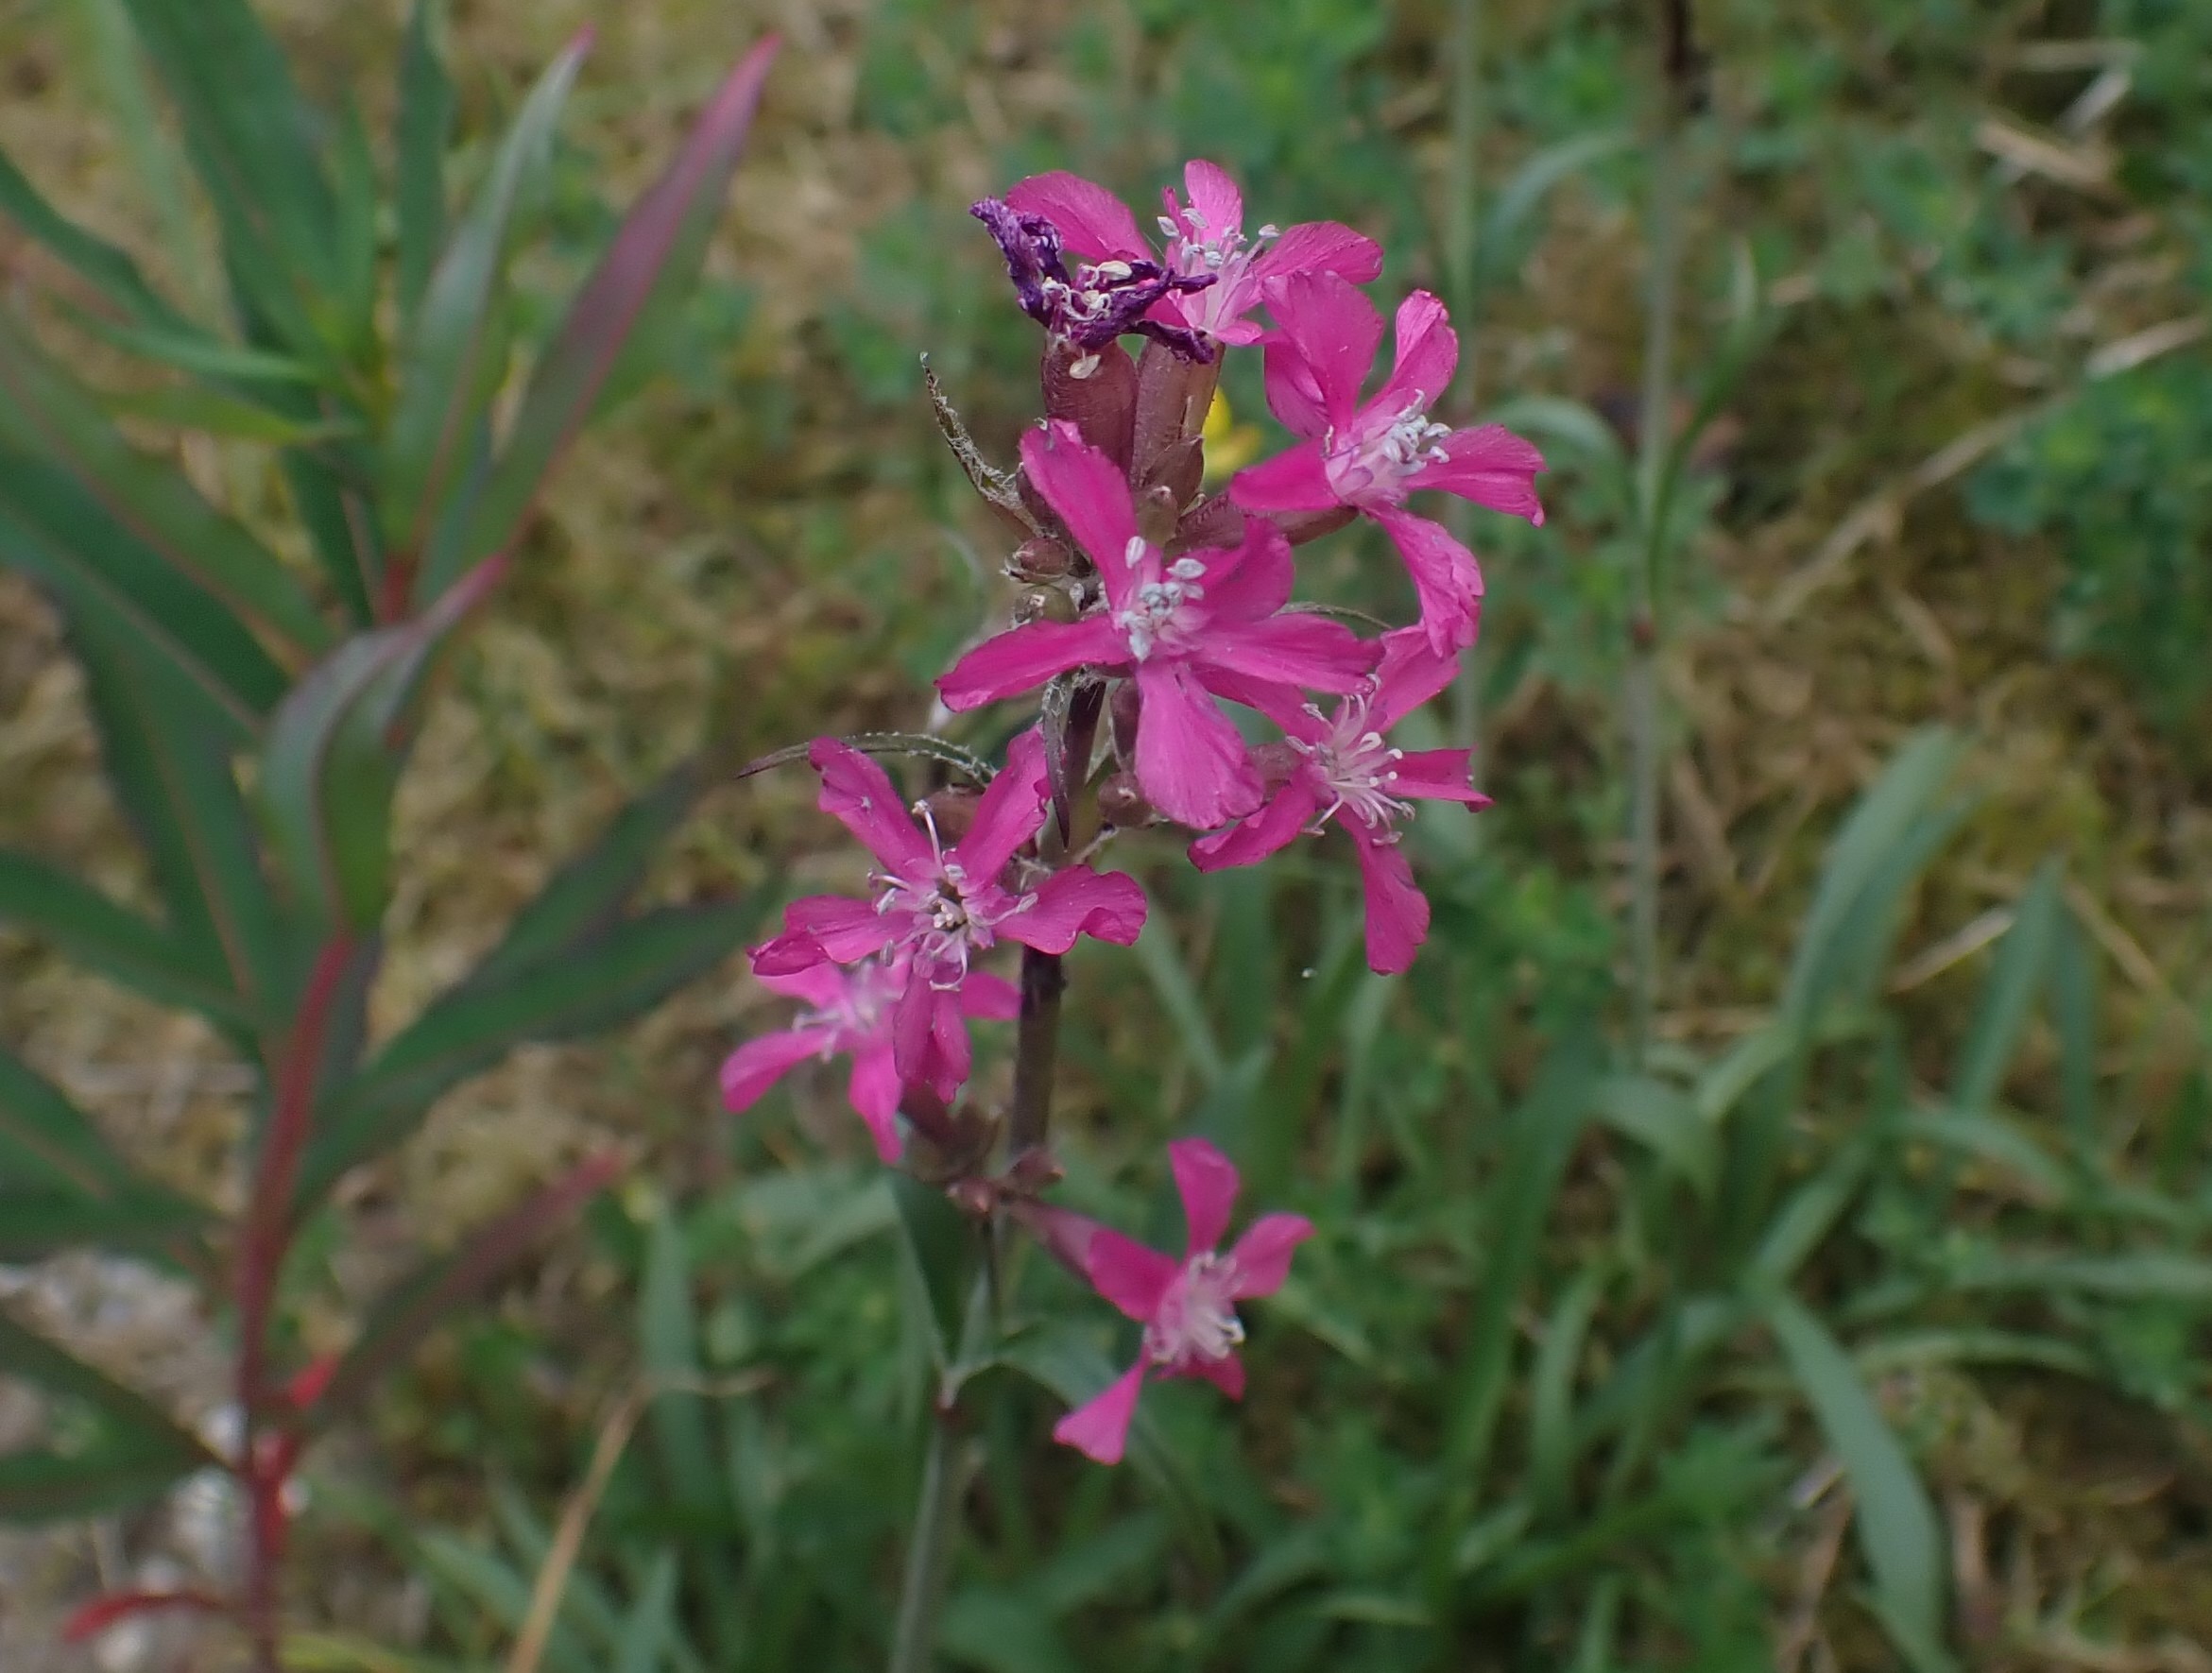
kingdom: Plantae
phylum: Tracheophyta
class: Magnoliopsida
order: Caryophyllales
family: Caryophyllaceae
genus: Viscaria
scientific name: Viscaria vulgaris
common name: Tjærenellike
